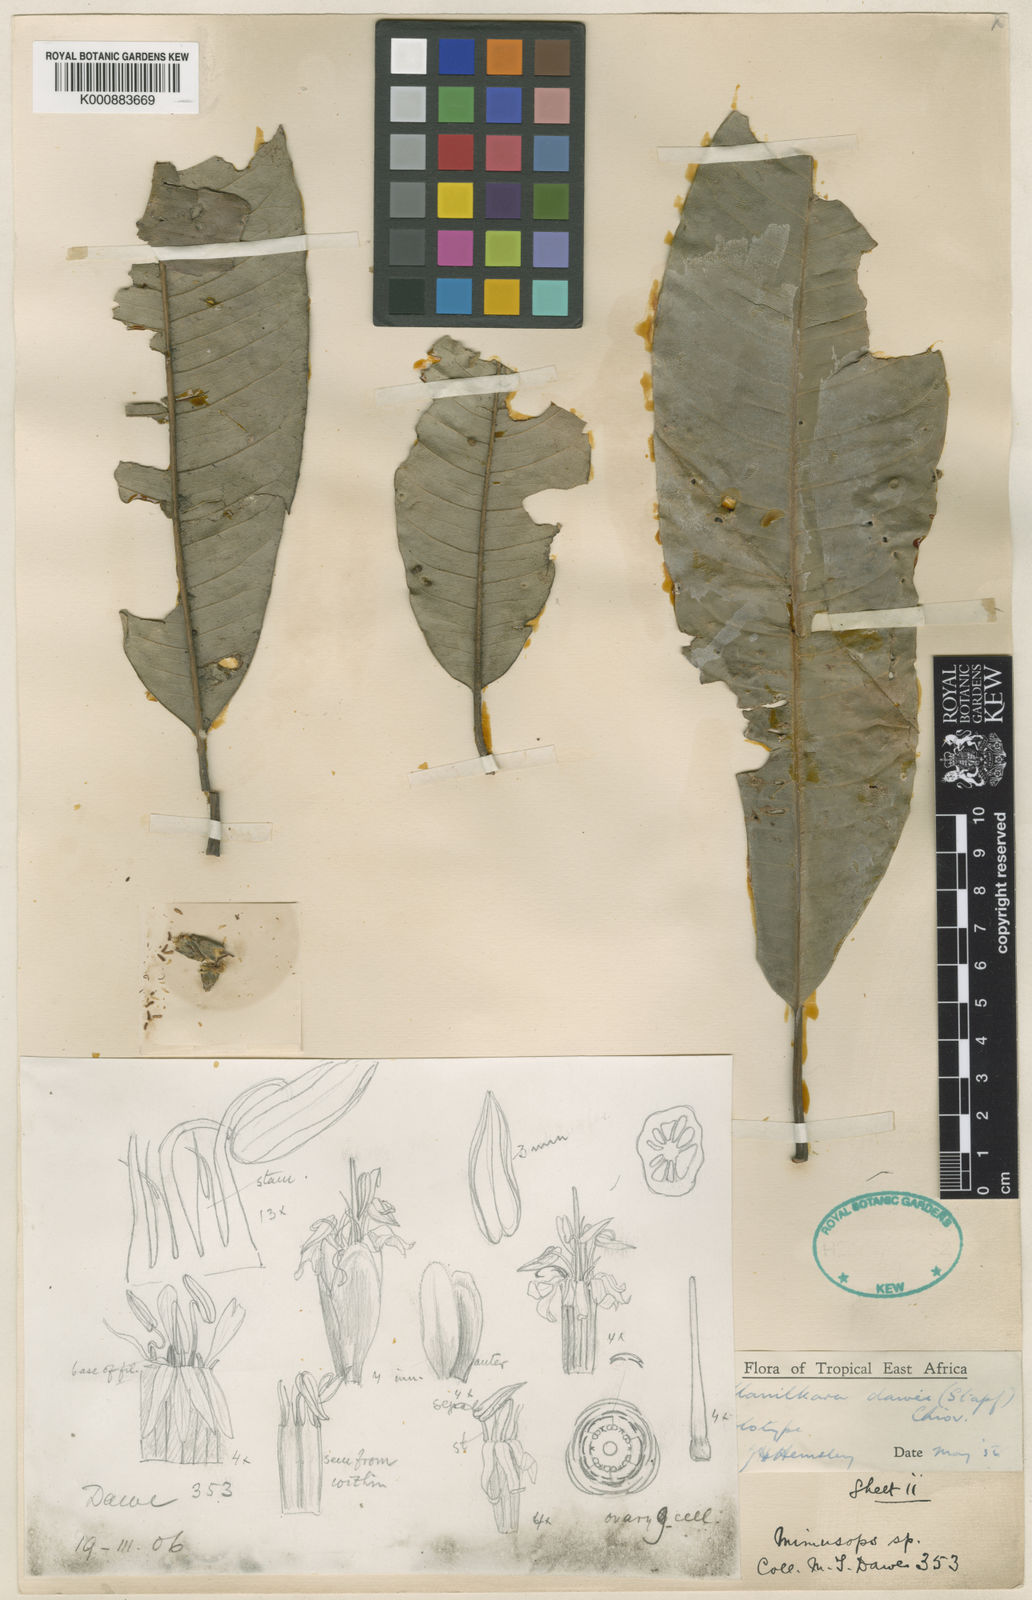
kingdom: Plantae
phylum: Tracheophyta
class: Magnoliopsida
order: Ericales
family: Sapotaceae
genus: Manilkara
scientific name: Manilkara dawei
